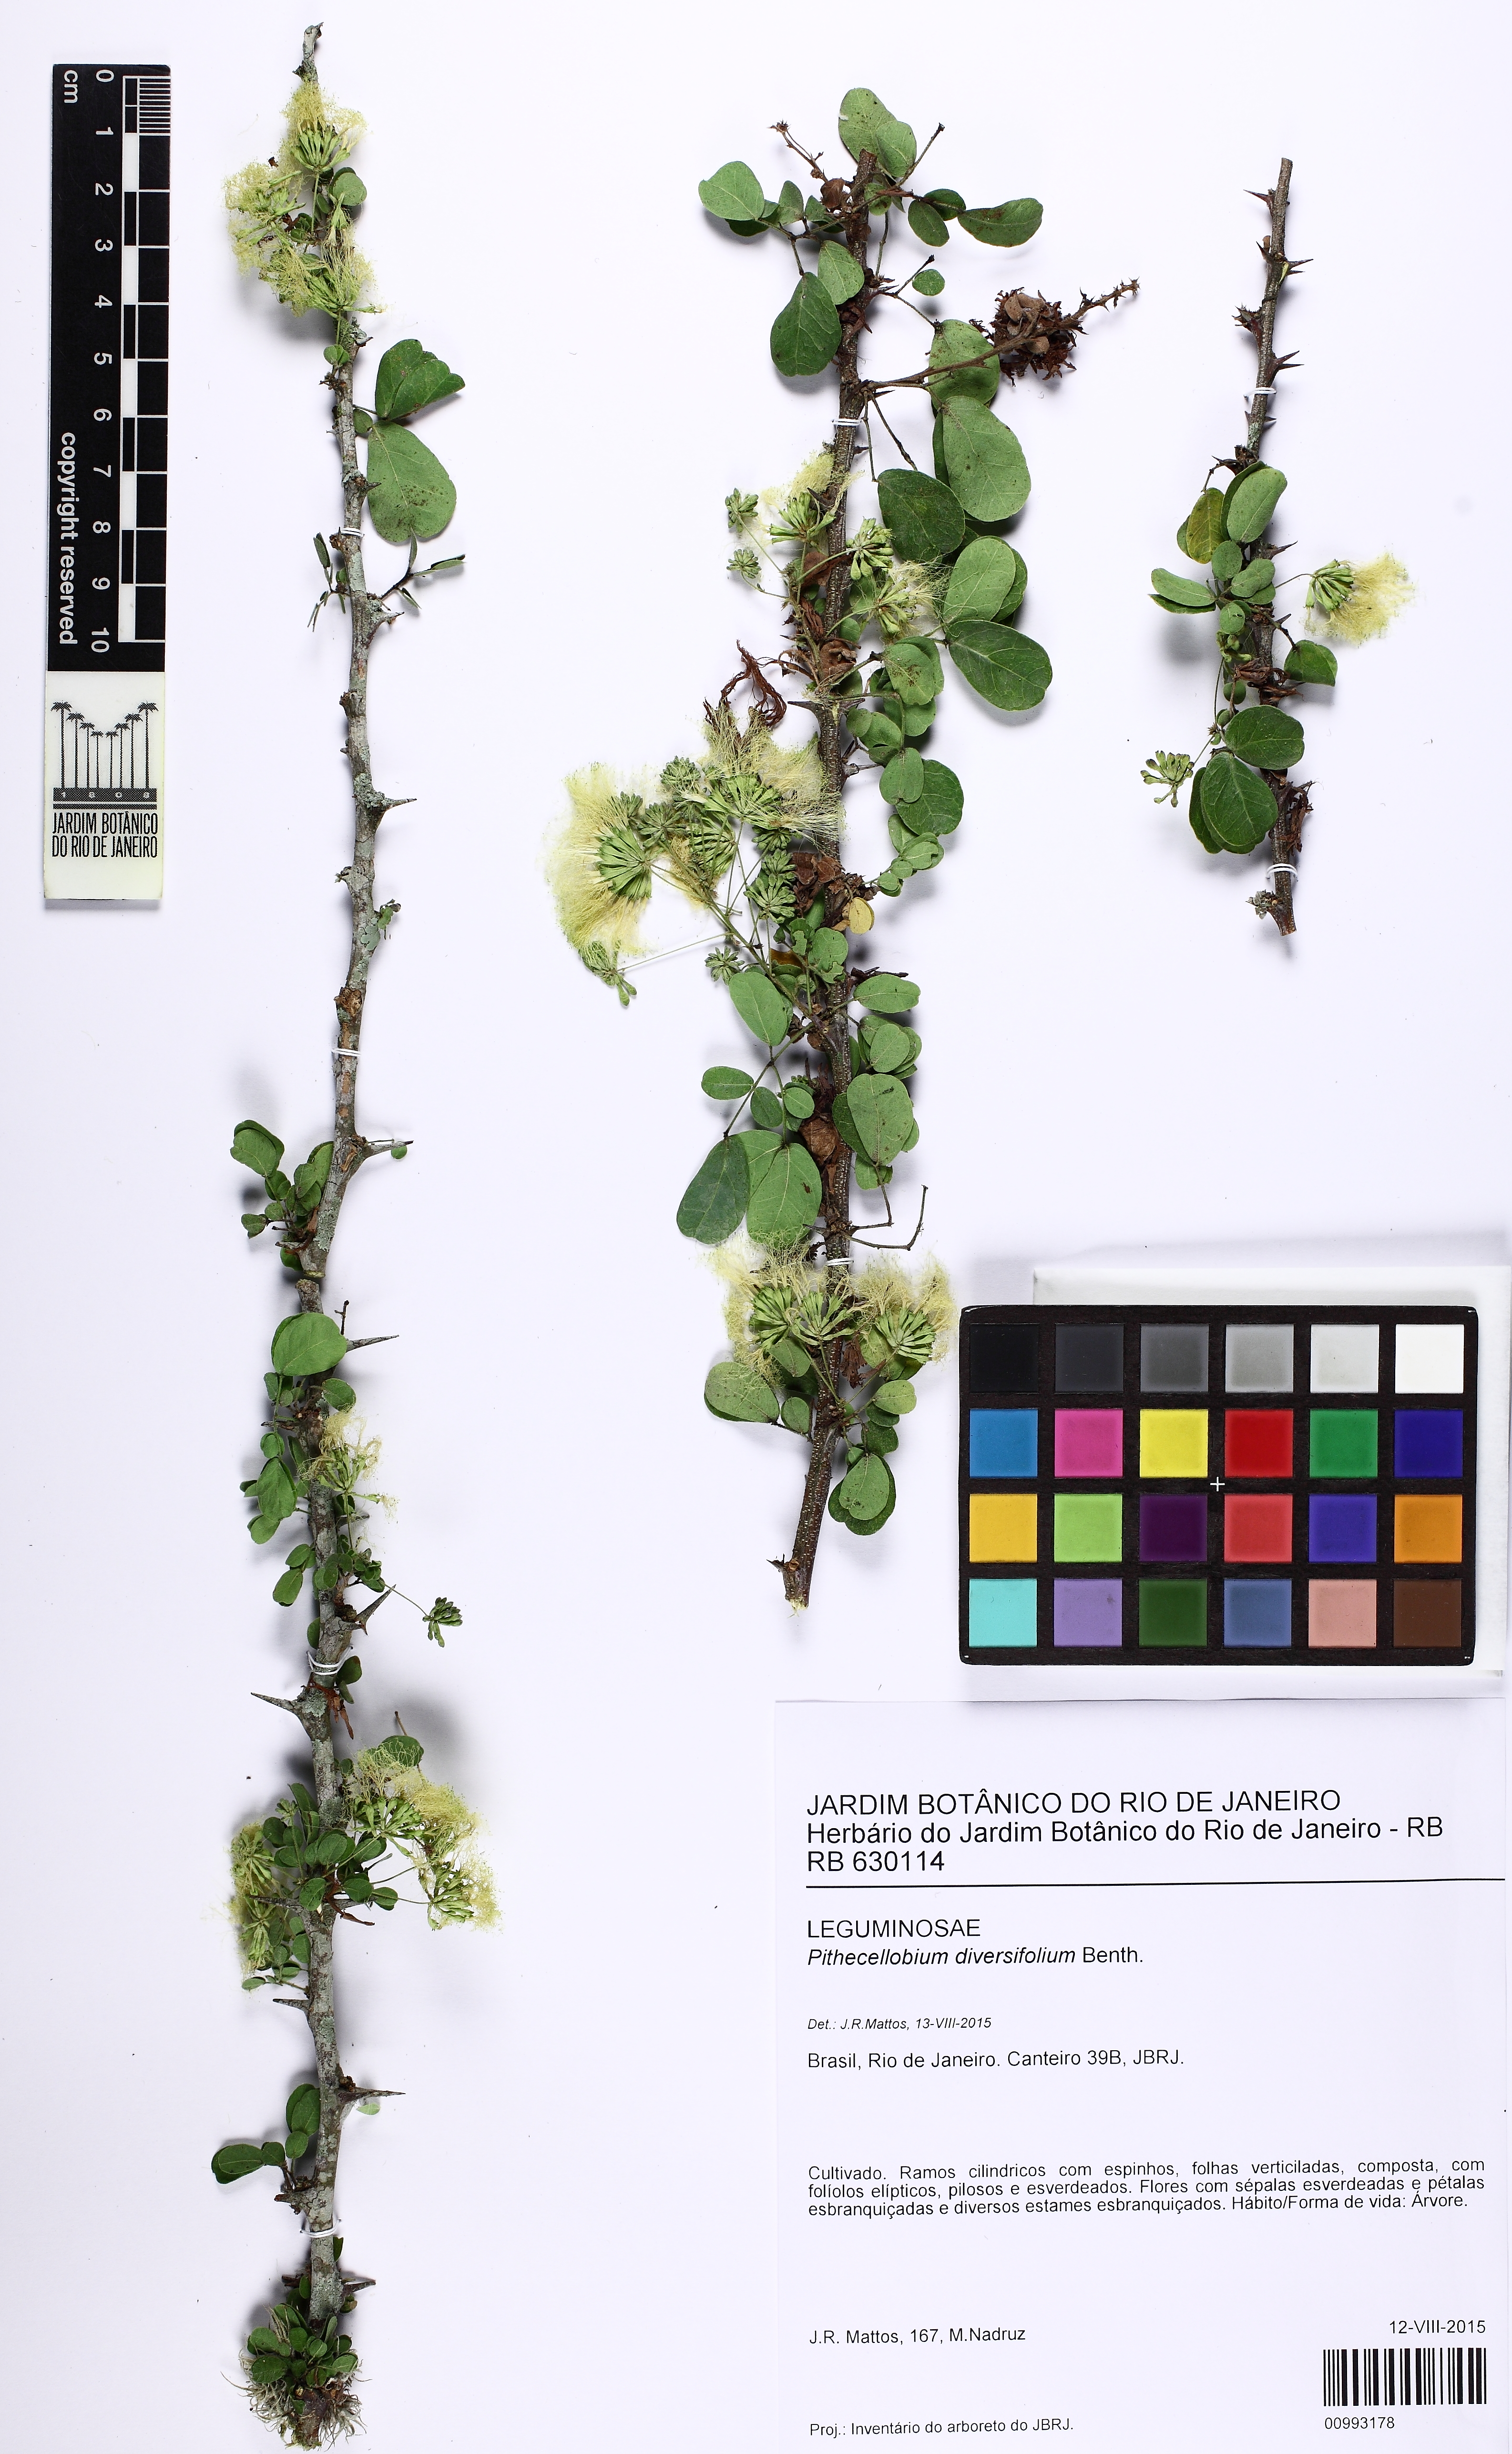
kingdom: Plantae
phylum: Tracheophyta
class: Magnoliopsida
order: Fabales
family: Fabaceae
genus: Pithecellobium
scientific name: Pithecellobium diversifolium
